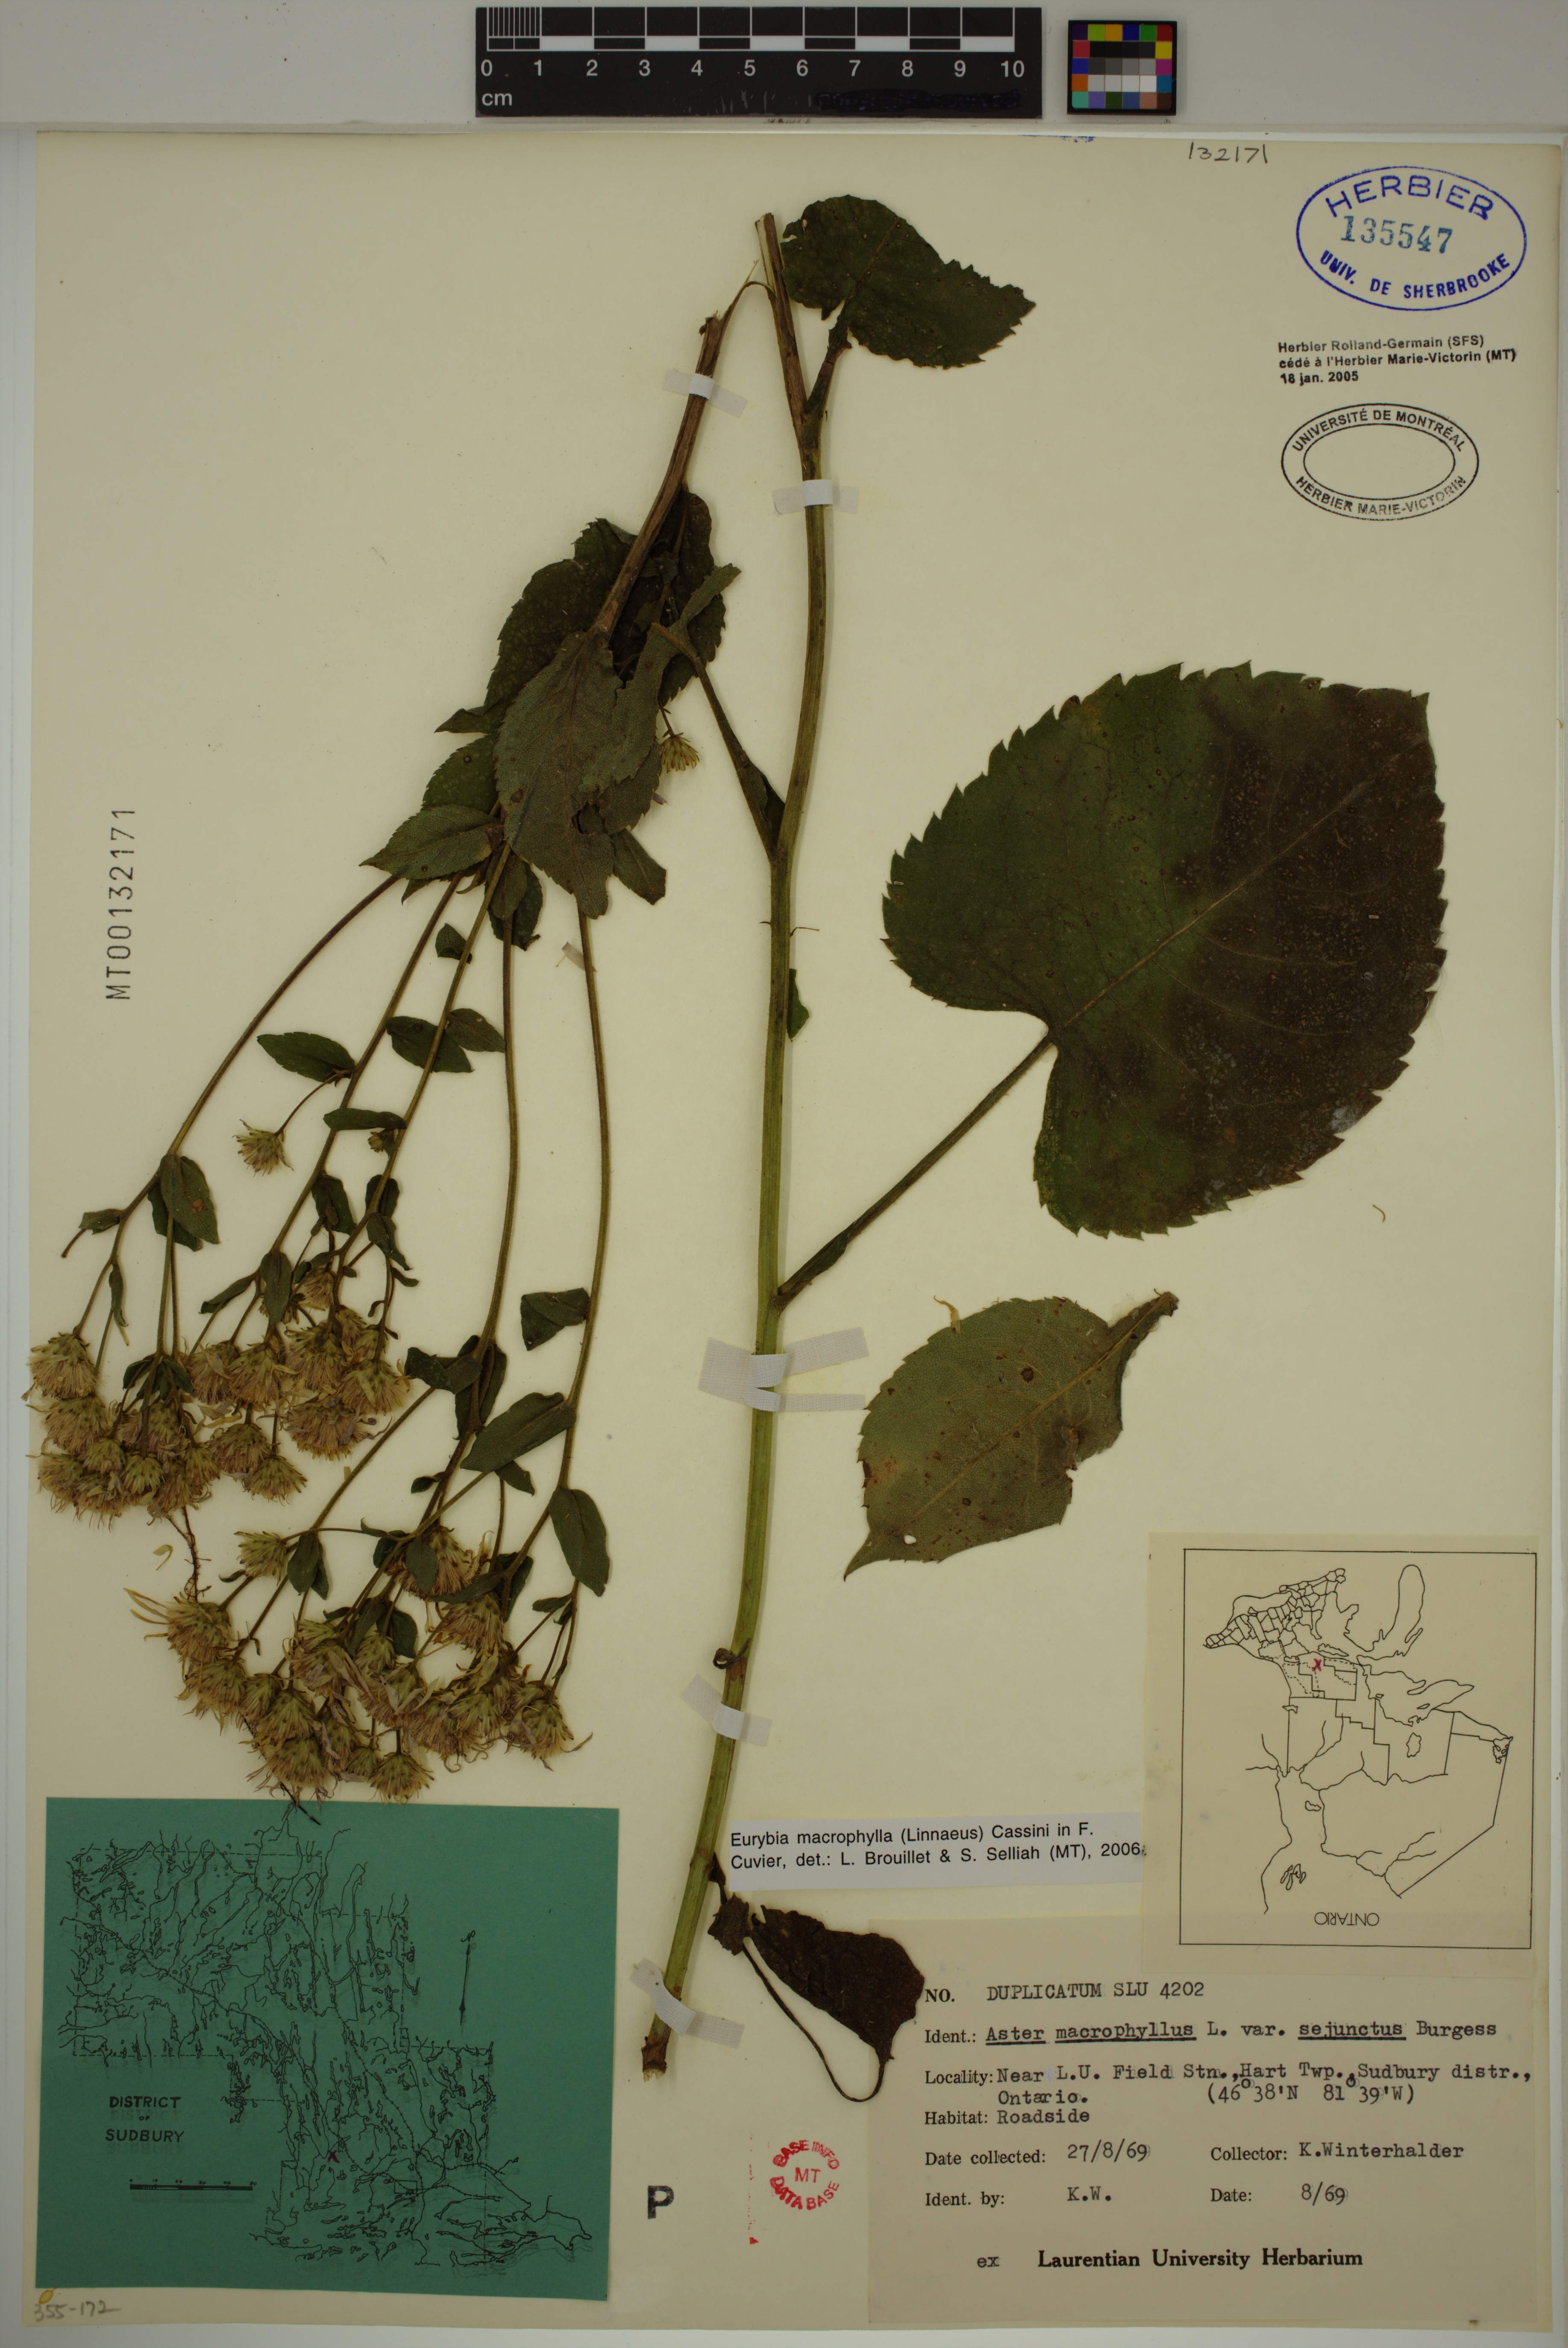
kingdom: Plantae
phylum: Tracheophyta
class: Magnoliopsida
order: Asterales
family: Asteraceae
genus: Eurybia
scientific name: Eurybia macrophylla
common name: Big-leaved aster
